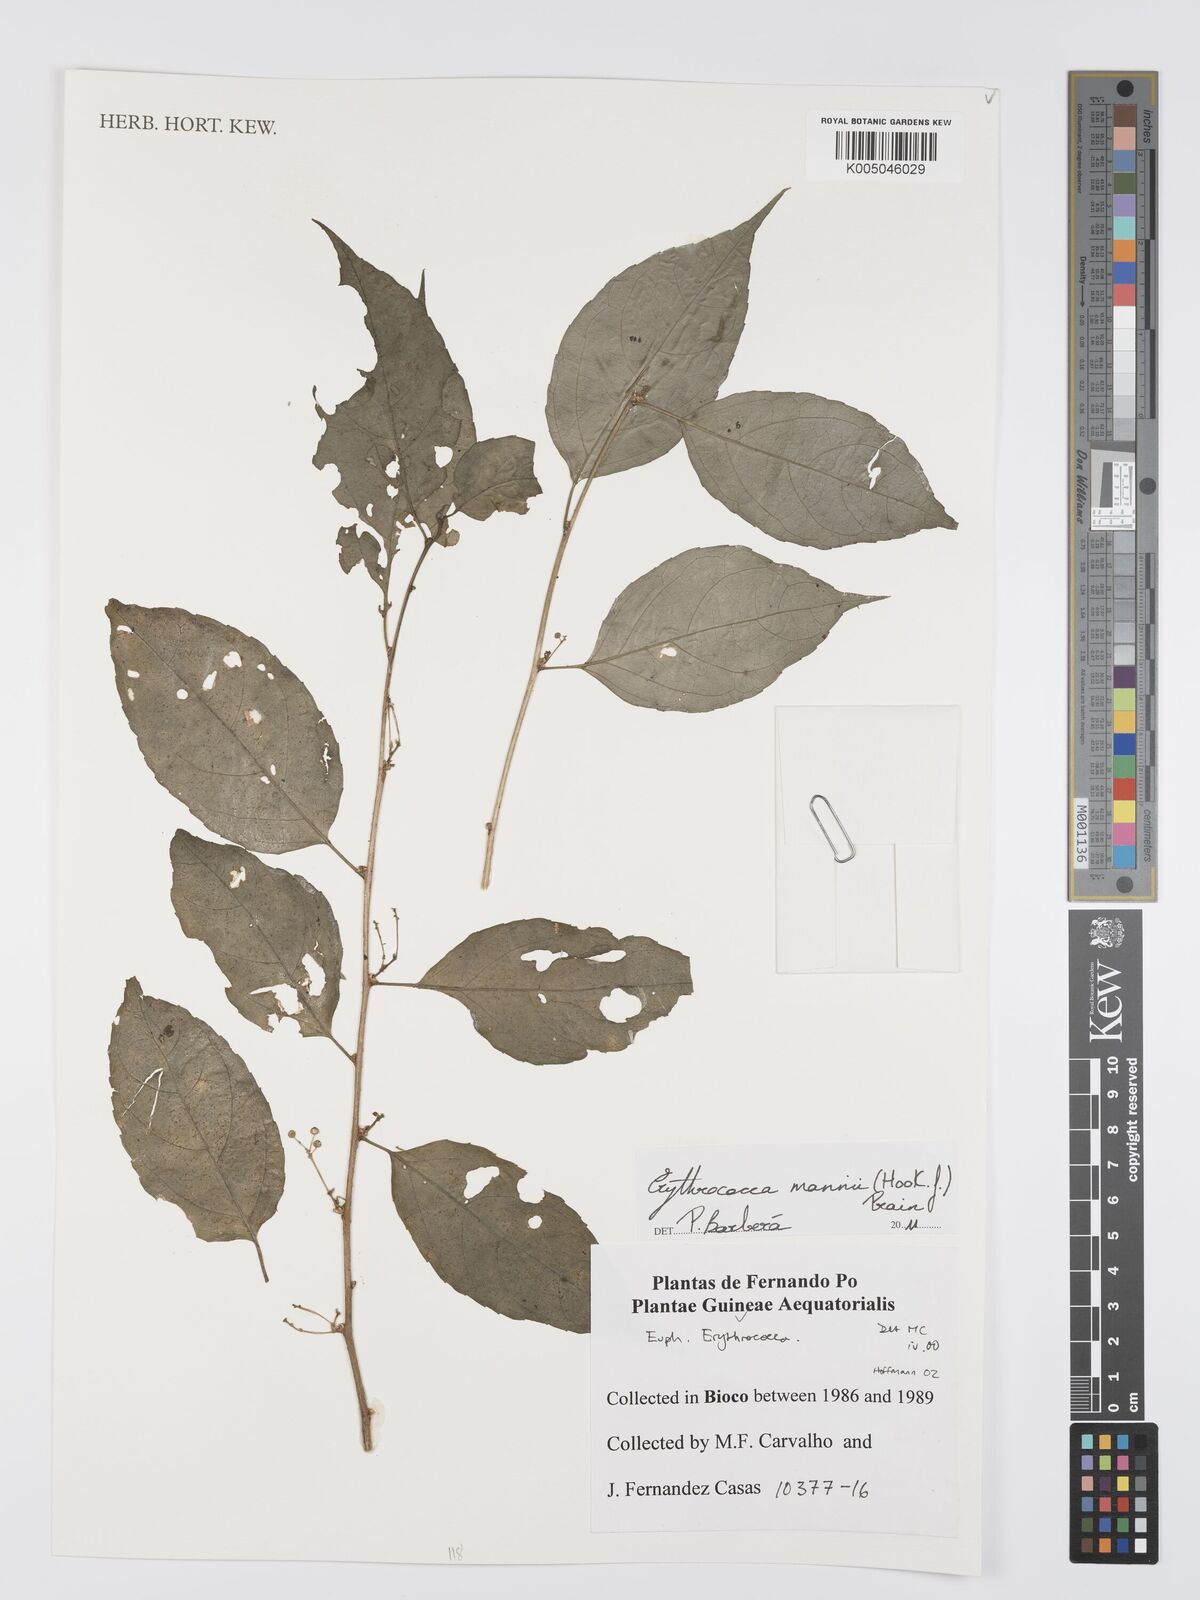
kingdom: Plantae
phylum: Tracheophyta
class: Magnoliopsida
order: Malpighiales
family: Euphorbiaceae
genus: Erythrococca
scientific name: Erythrococca mannii
